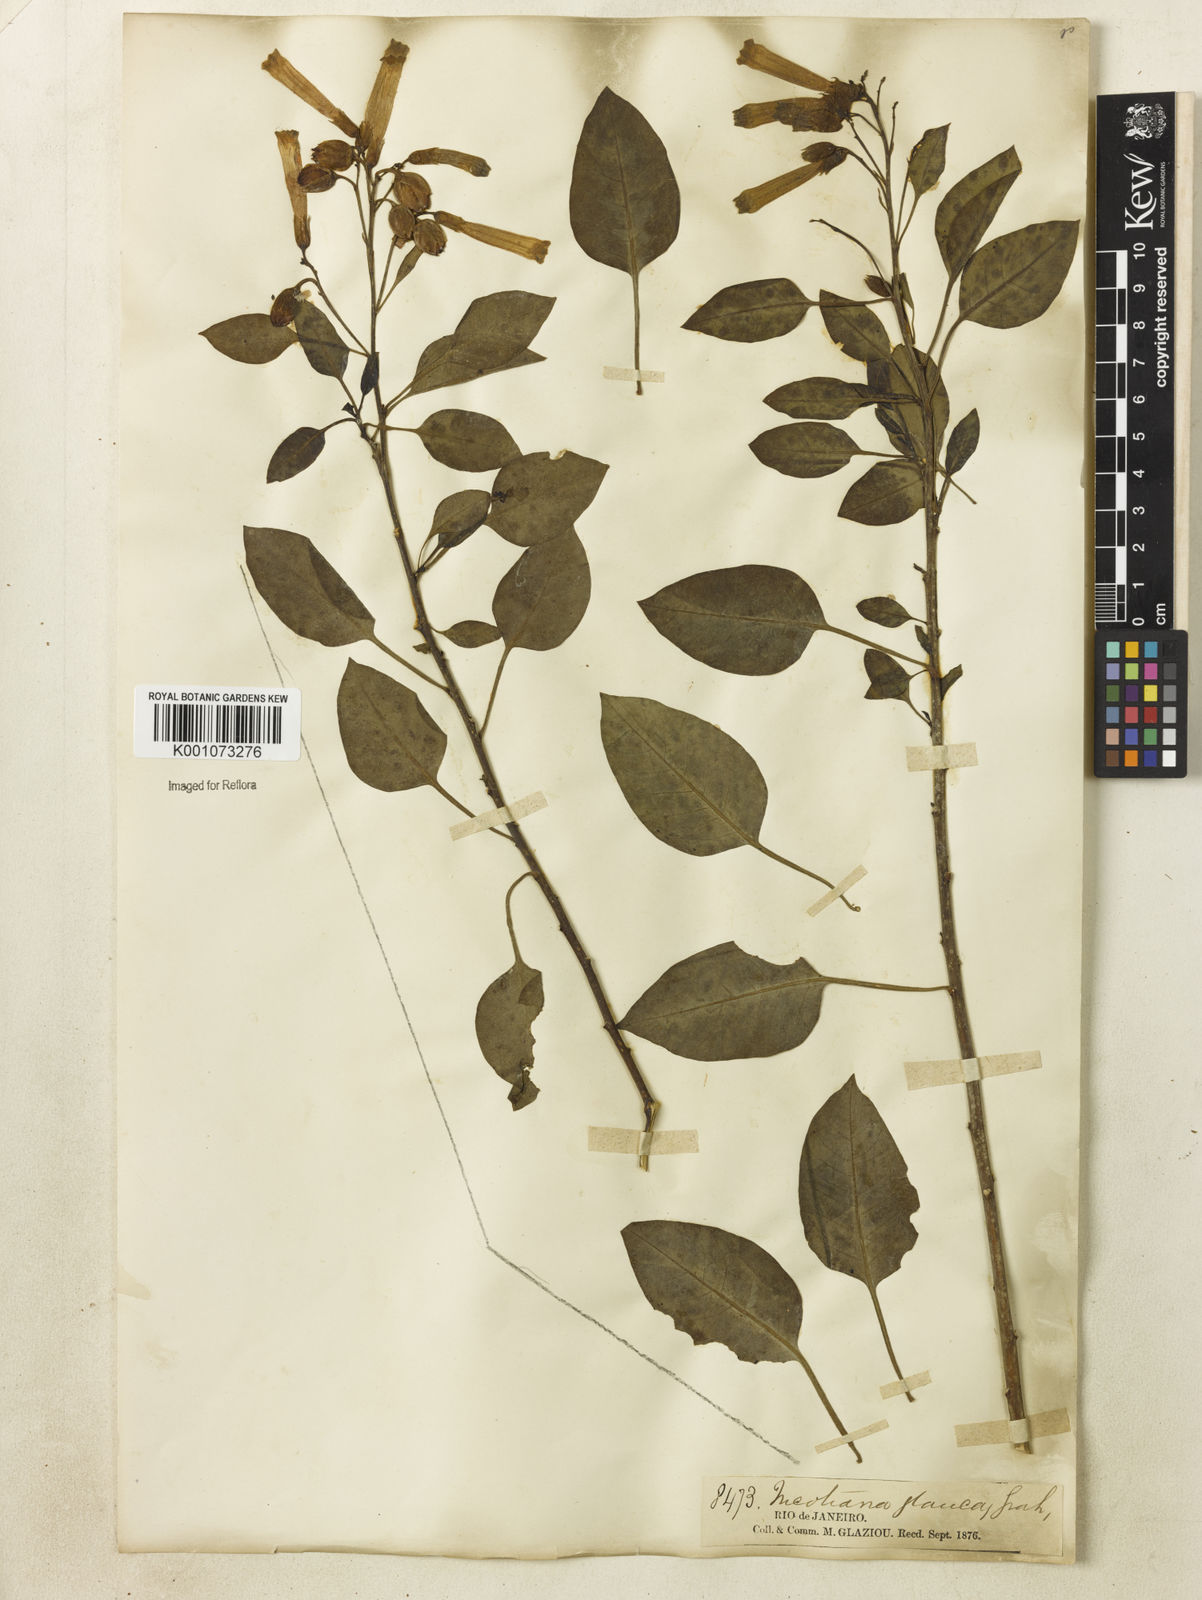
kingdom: Plantae
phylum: Tracheophyta
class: Magnoliopsida
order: Solanales
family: Solanaceae
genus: Nicotiana
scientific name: Nicotiana glauca
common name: Tree tobacco
